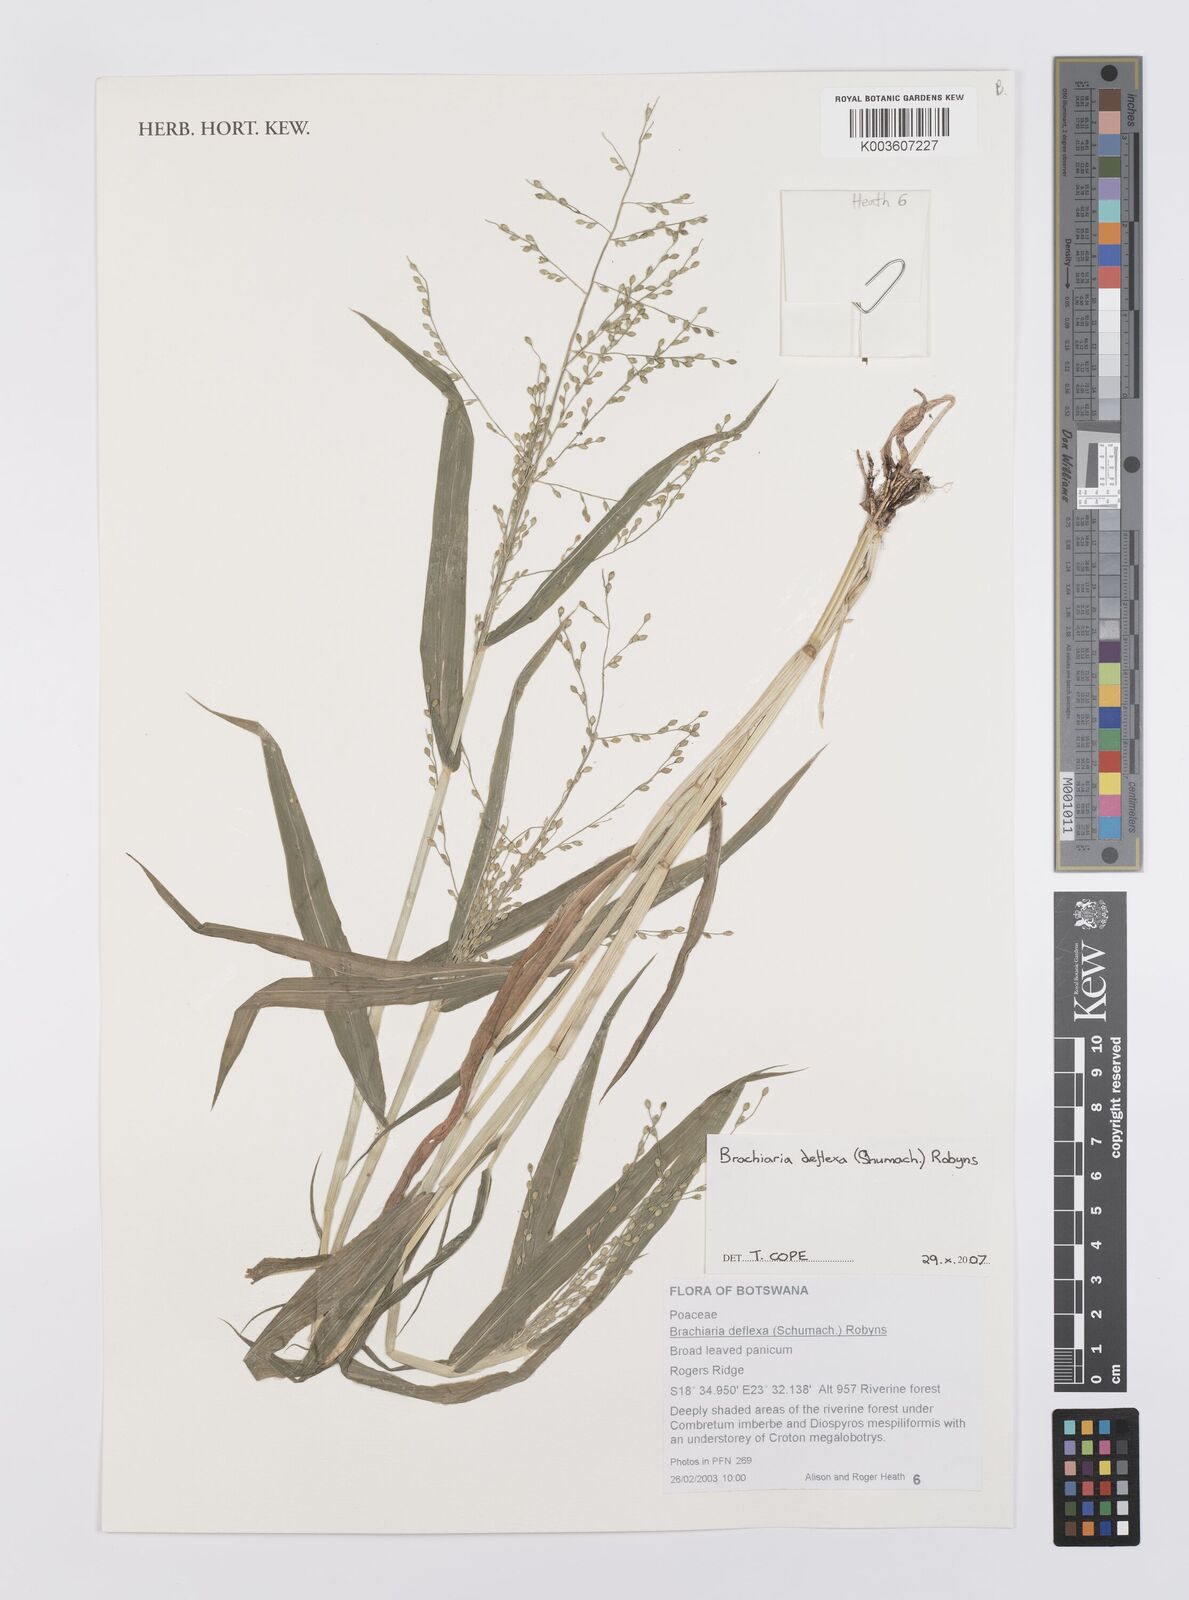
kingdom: Plantae
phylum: Tracheophyta
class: Liliopsida
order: Poales
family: Poaceae
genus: Urochloa
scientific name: Urochloa deflexa
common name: Guinea millet
